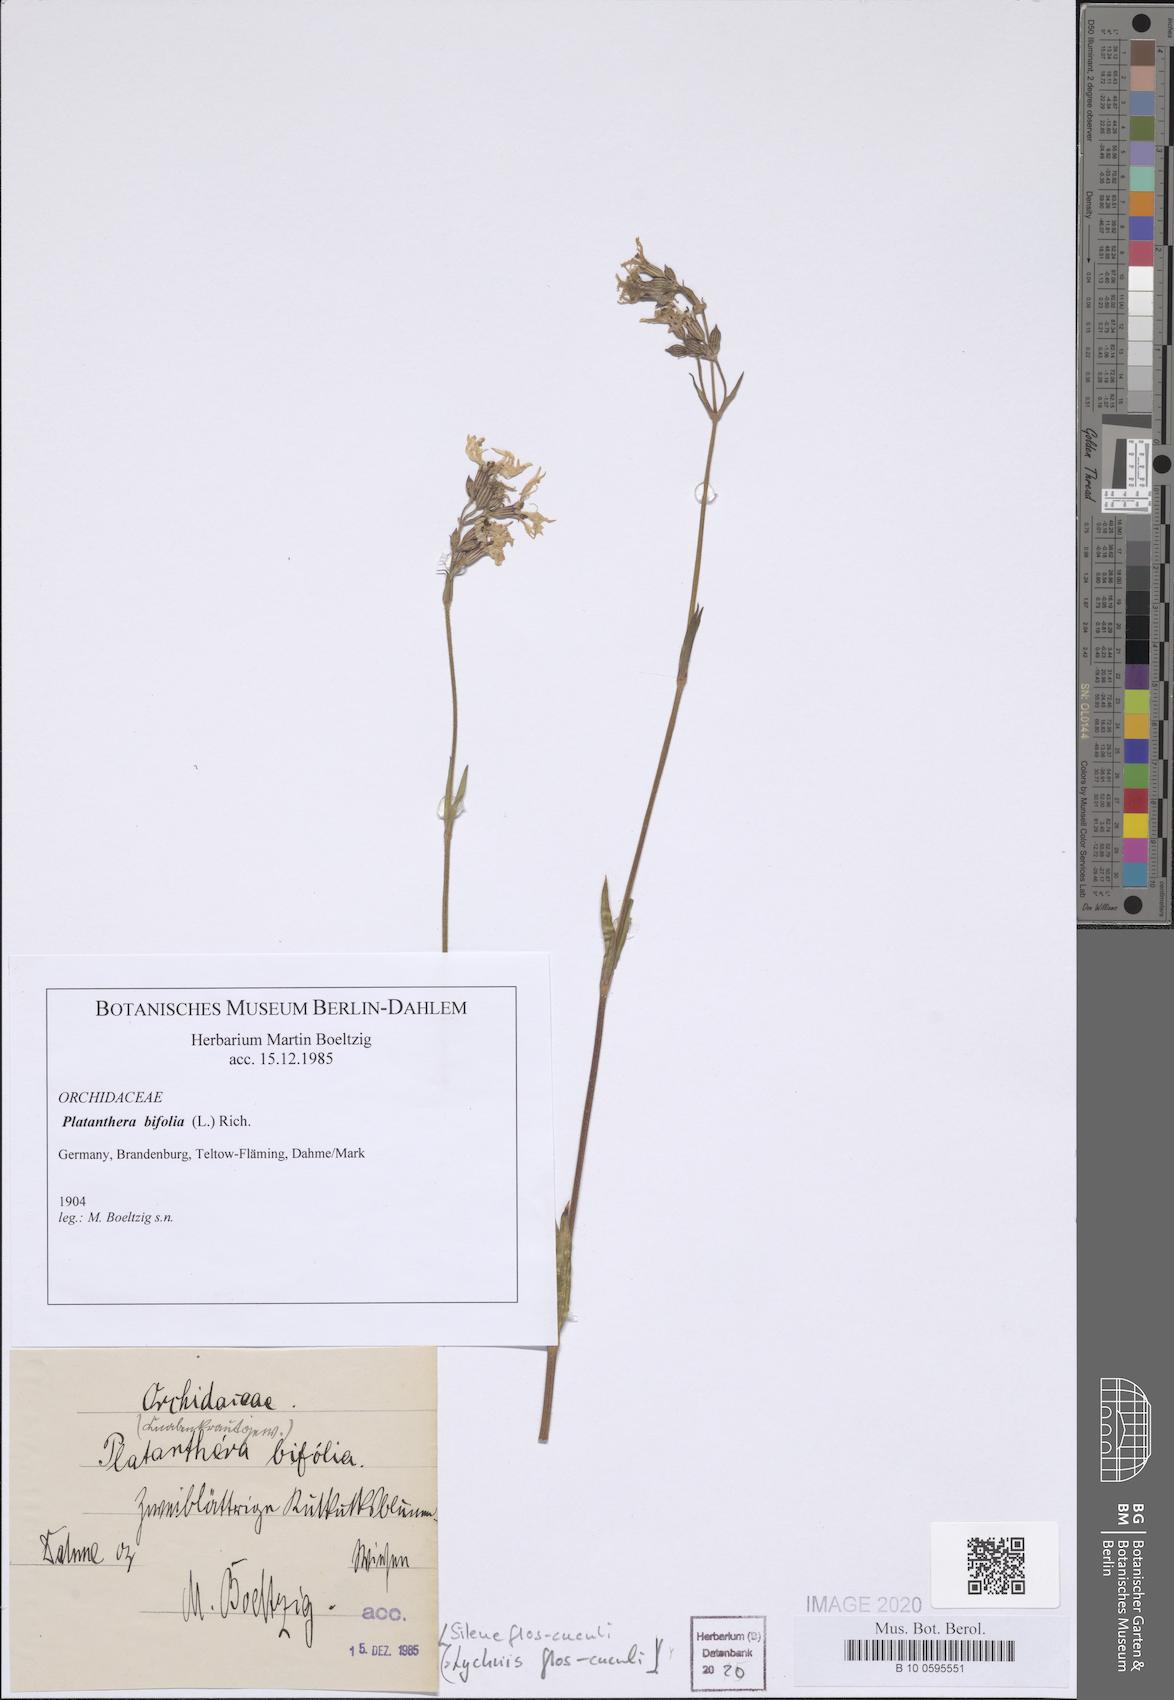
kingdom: Plantae
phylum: Tracheophyta
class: Magnoliopsida
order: Caryophyllales
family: Caryophyllaceae
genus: Silene
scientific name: Silene flos-cuculi
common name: Ragged-robin
